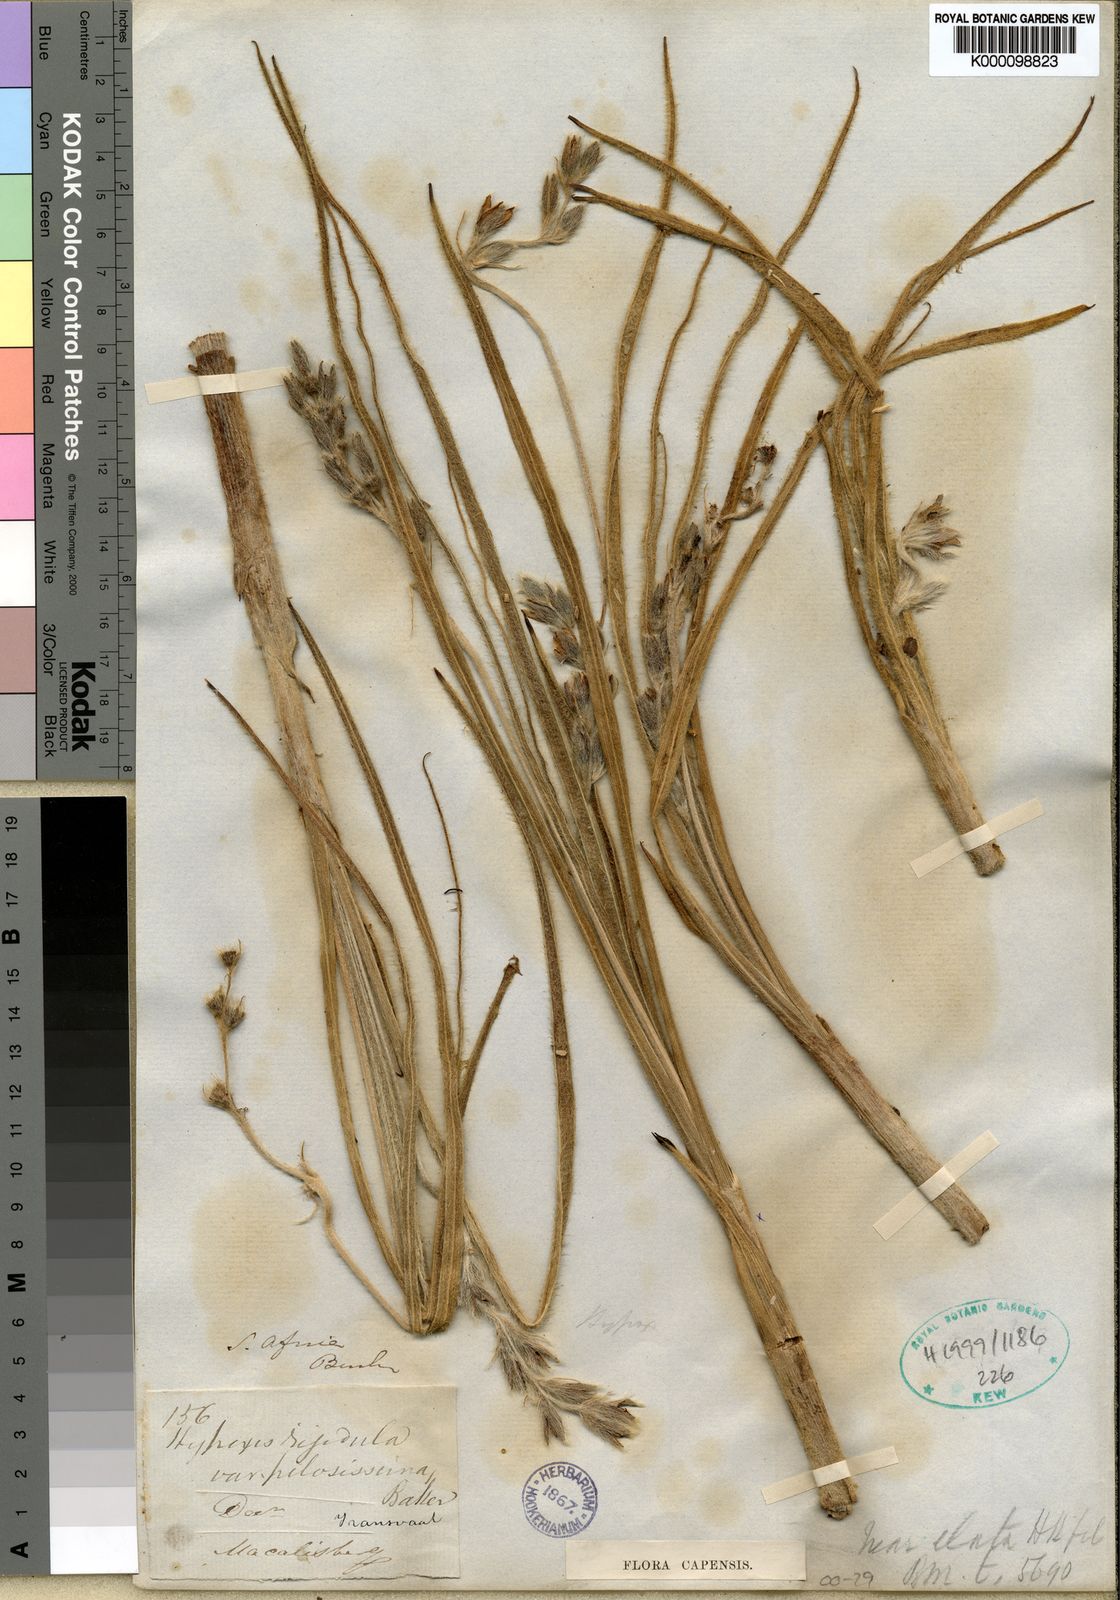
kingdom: Plantae
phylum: Tracheophyta
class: Liliopsida
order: Asparagales
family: Hypoxidaceae
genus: Hypoxis
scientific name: Hypoxis rigidula
